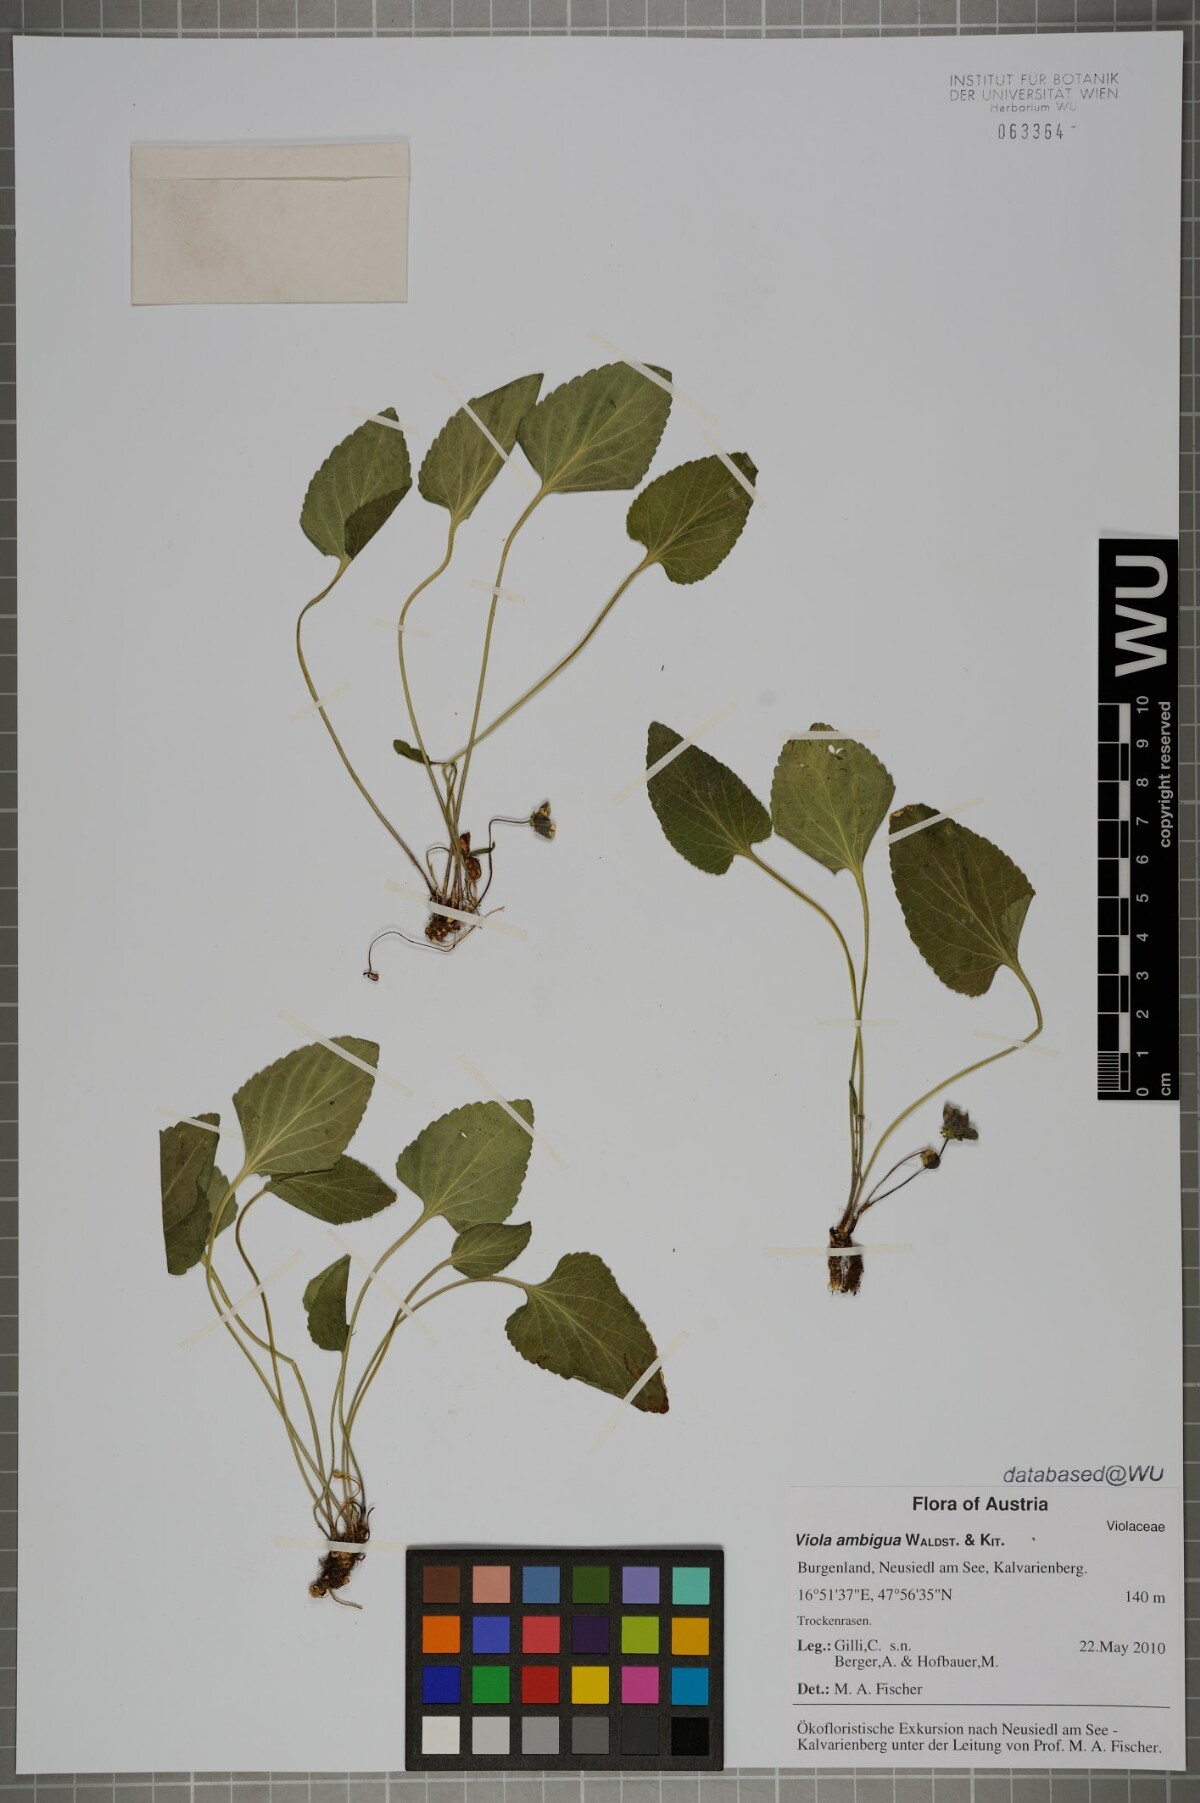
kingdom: Plantae
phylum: Tracheophyta
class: Magnoliopsida
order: Malpighiales
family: Violaceae
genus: Viola
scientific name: Viola ambigua
